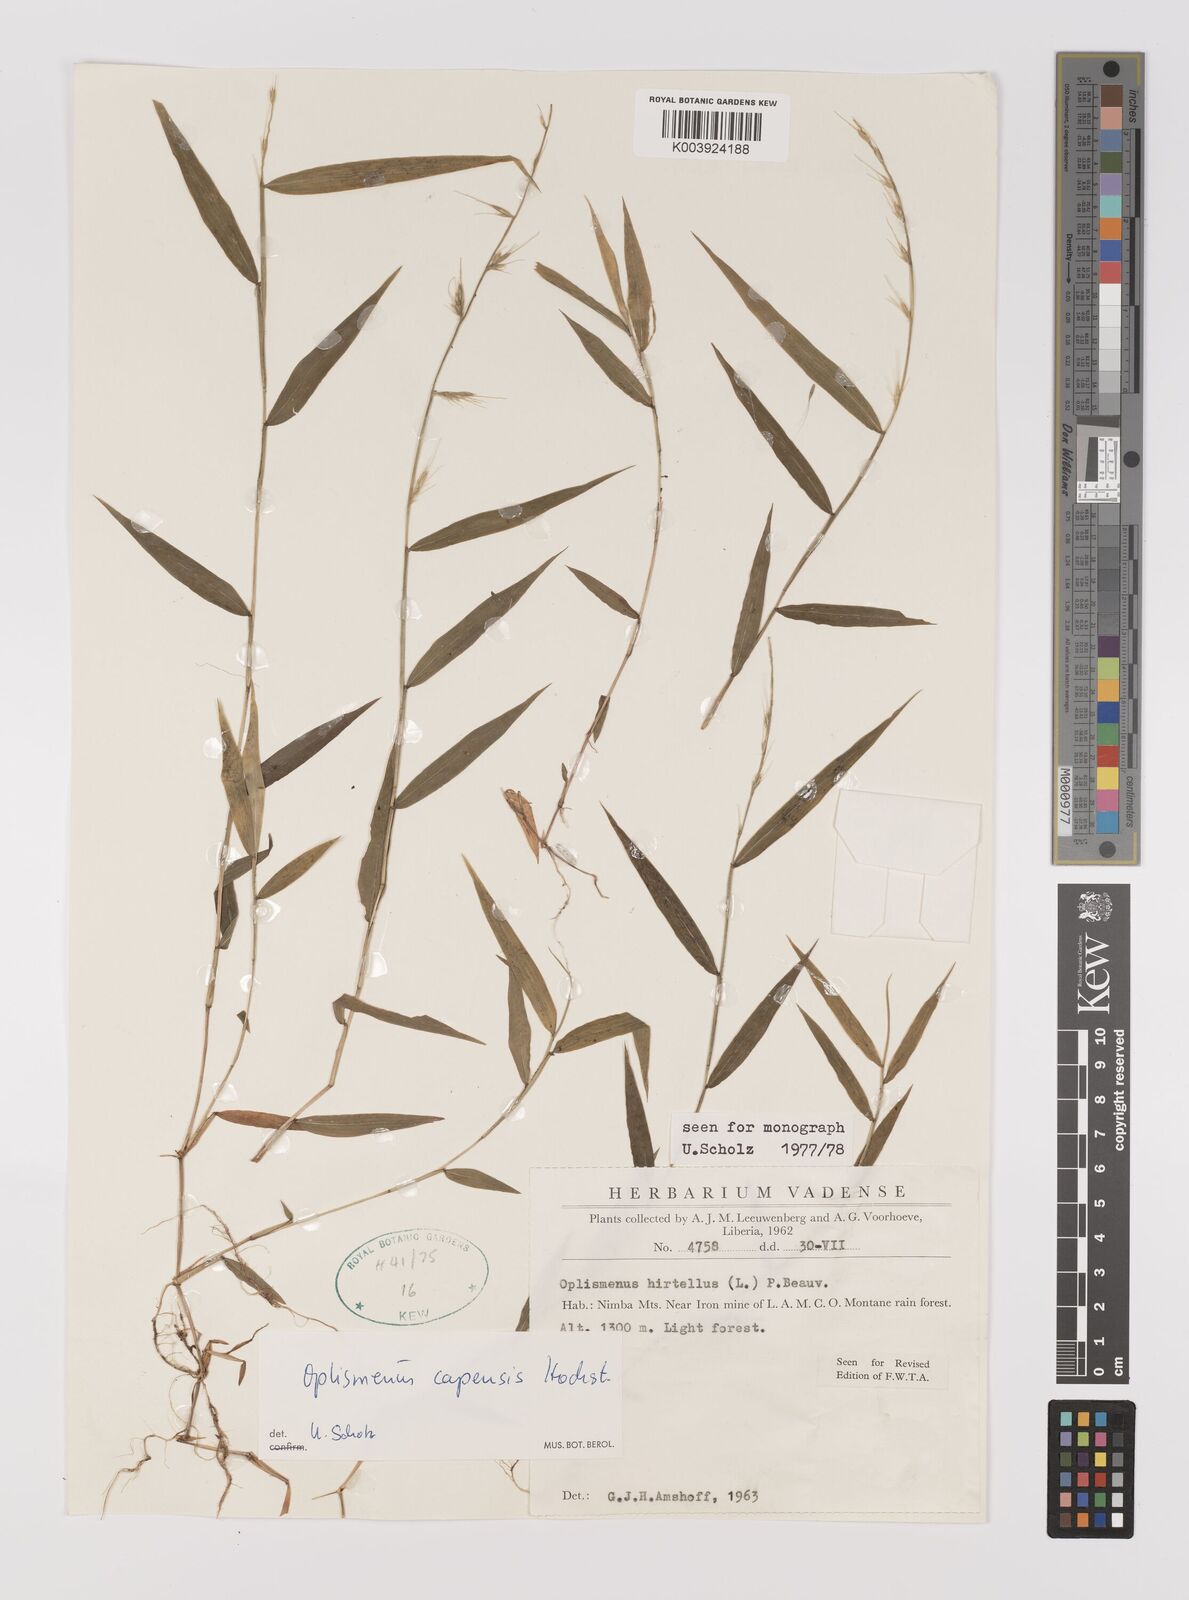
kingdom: Plantae
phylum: Tracheophyta
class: Liliopsida
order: Poales
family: Poaceae
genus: Oplismenus
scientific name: Oplismenus hirtellus
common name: Basketgrass
